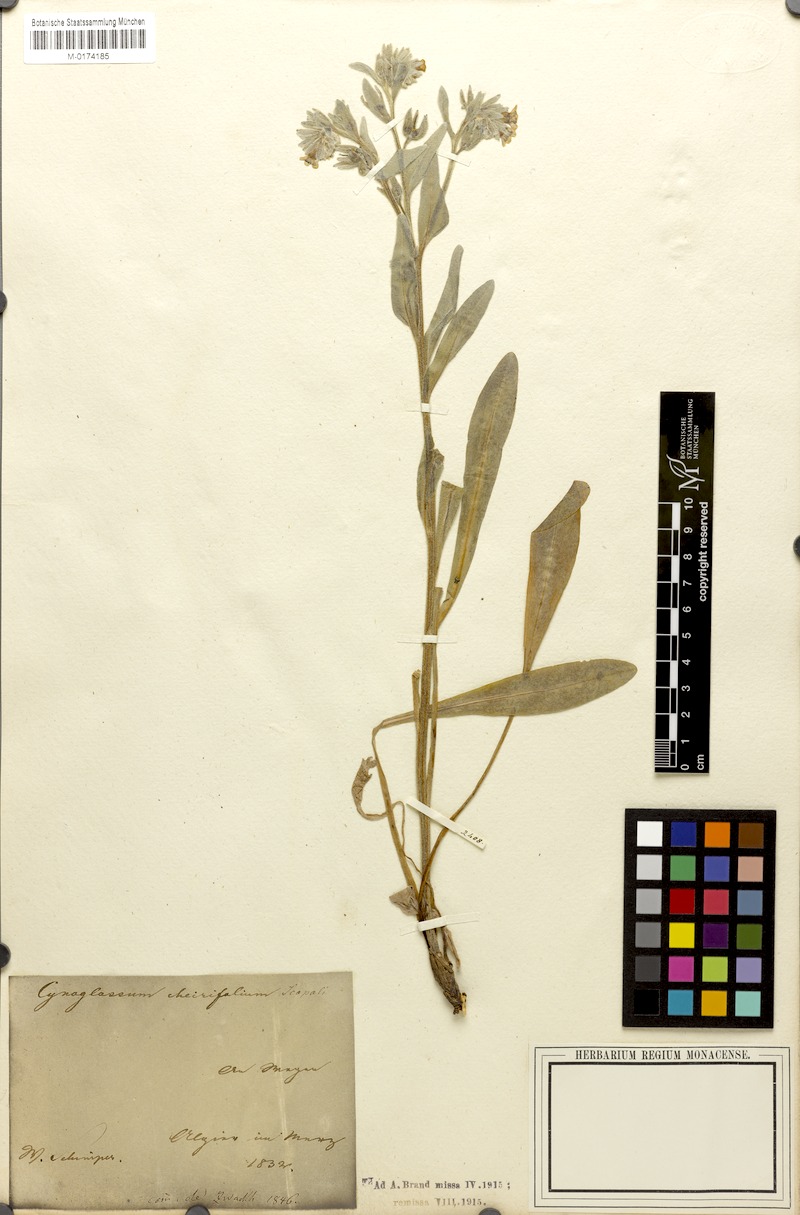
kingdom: Plantae
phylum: Tracheophyta
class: Magnoliopsida
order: Boraginales
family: Boraginaceae
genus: Pardoglossum
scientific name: Pardoglossum cheirifolium
